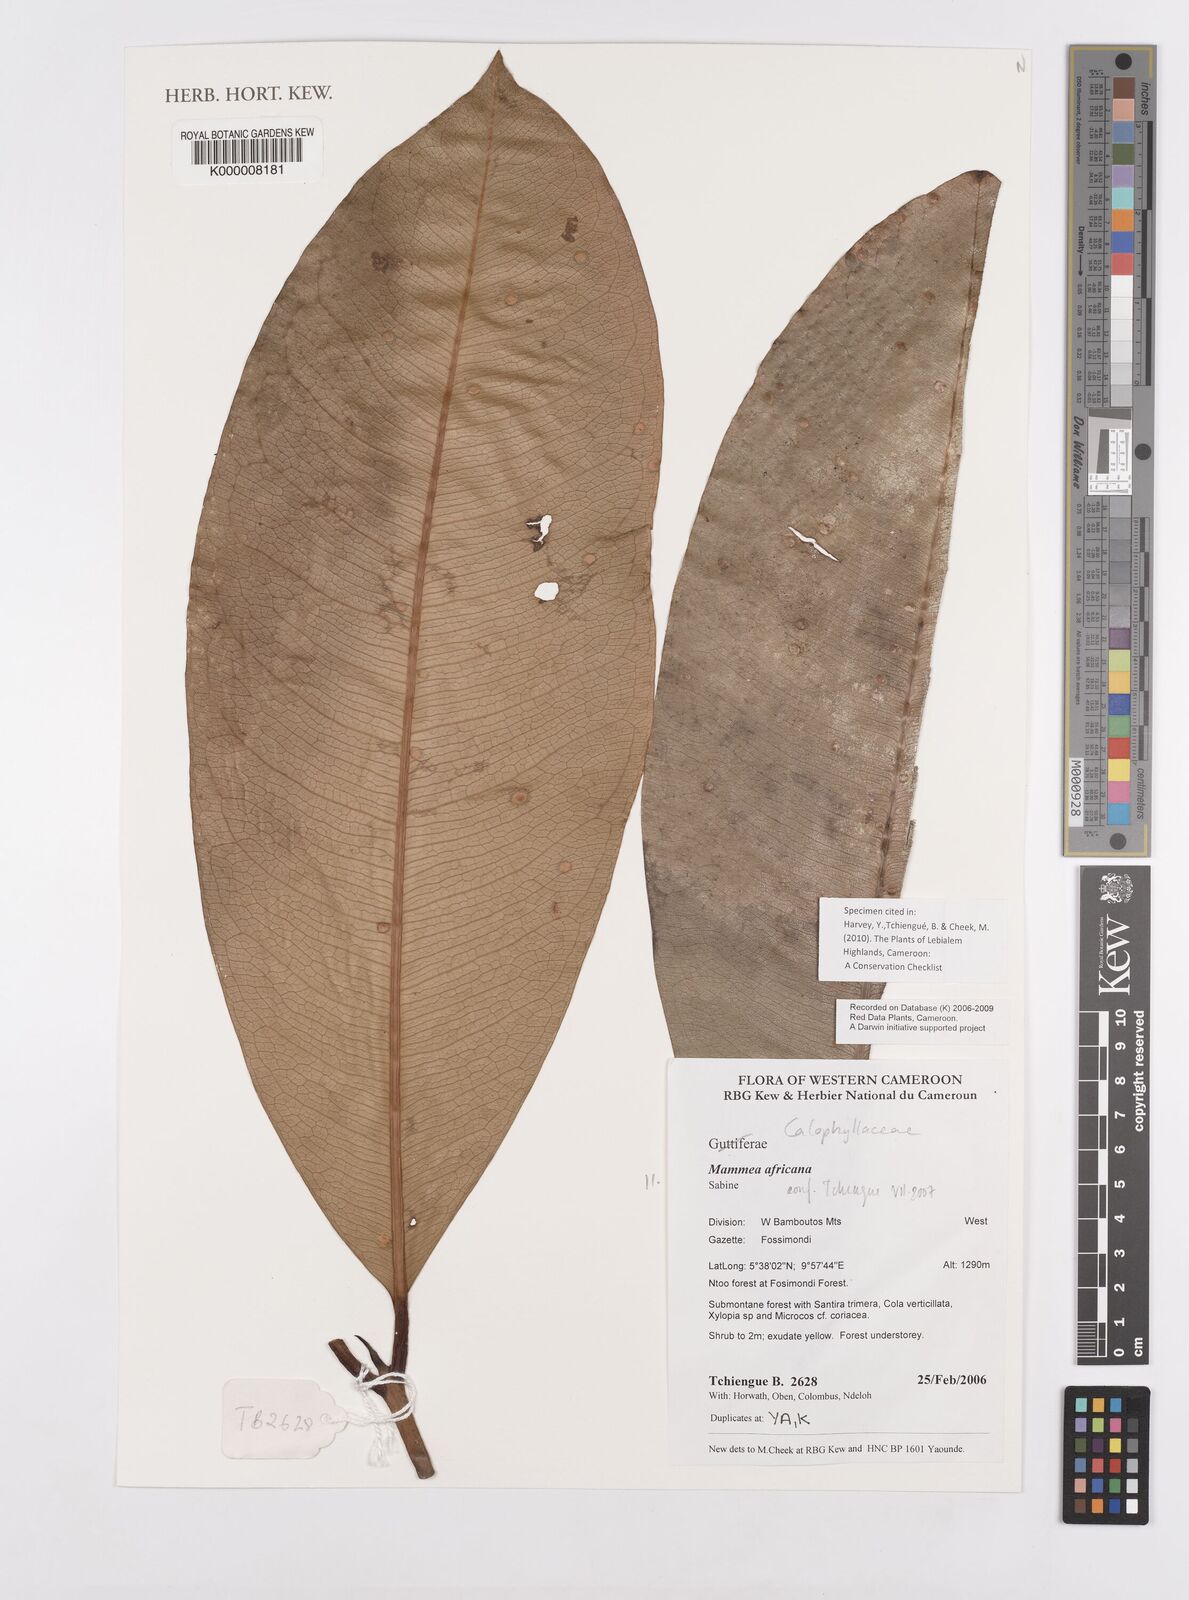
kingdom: Plantae
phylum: Tracheophyta
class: Magnoliopsida
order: Malpighiales
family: Calophyllaceae
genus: Mammea
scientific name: Mammea africana
